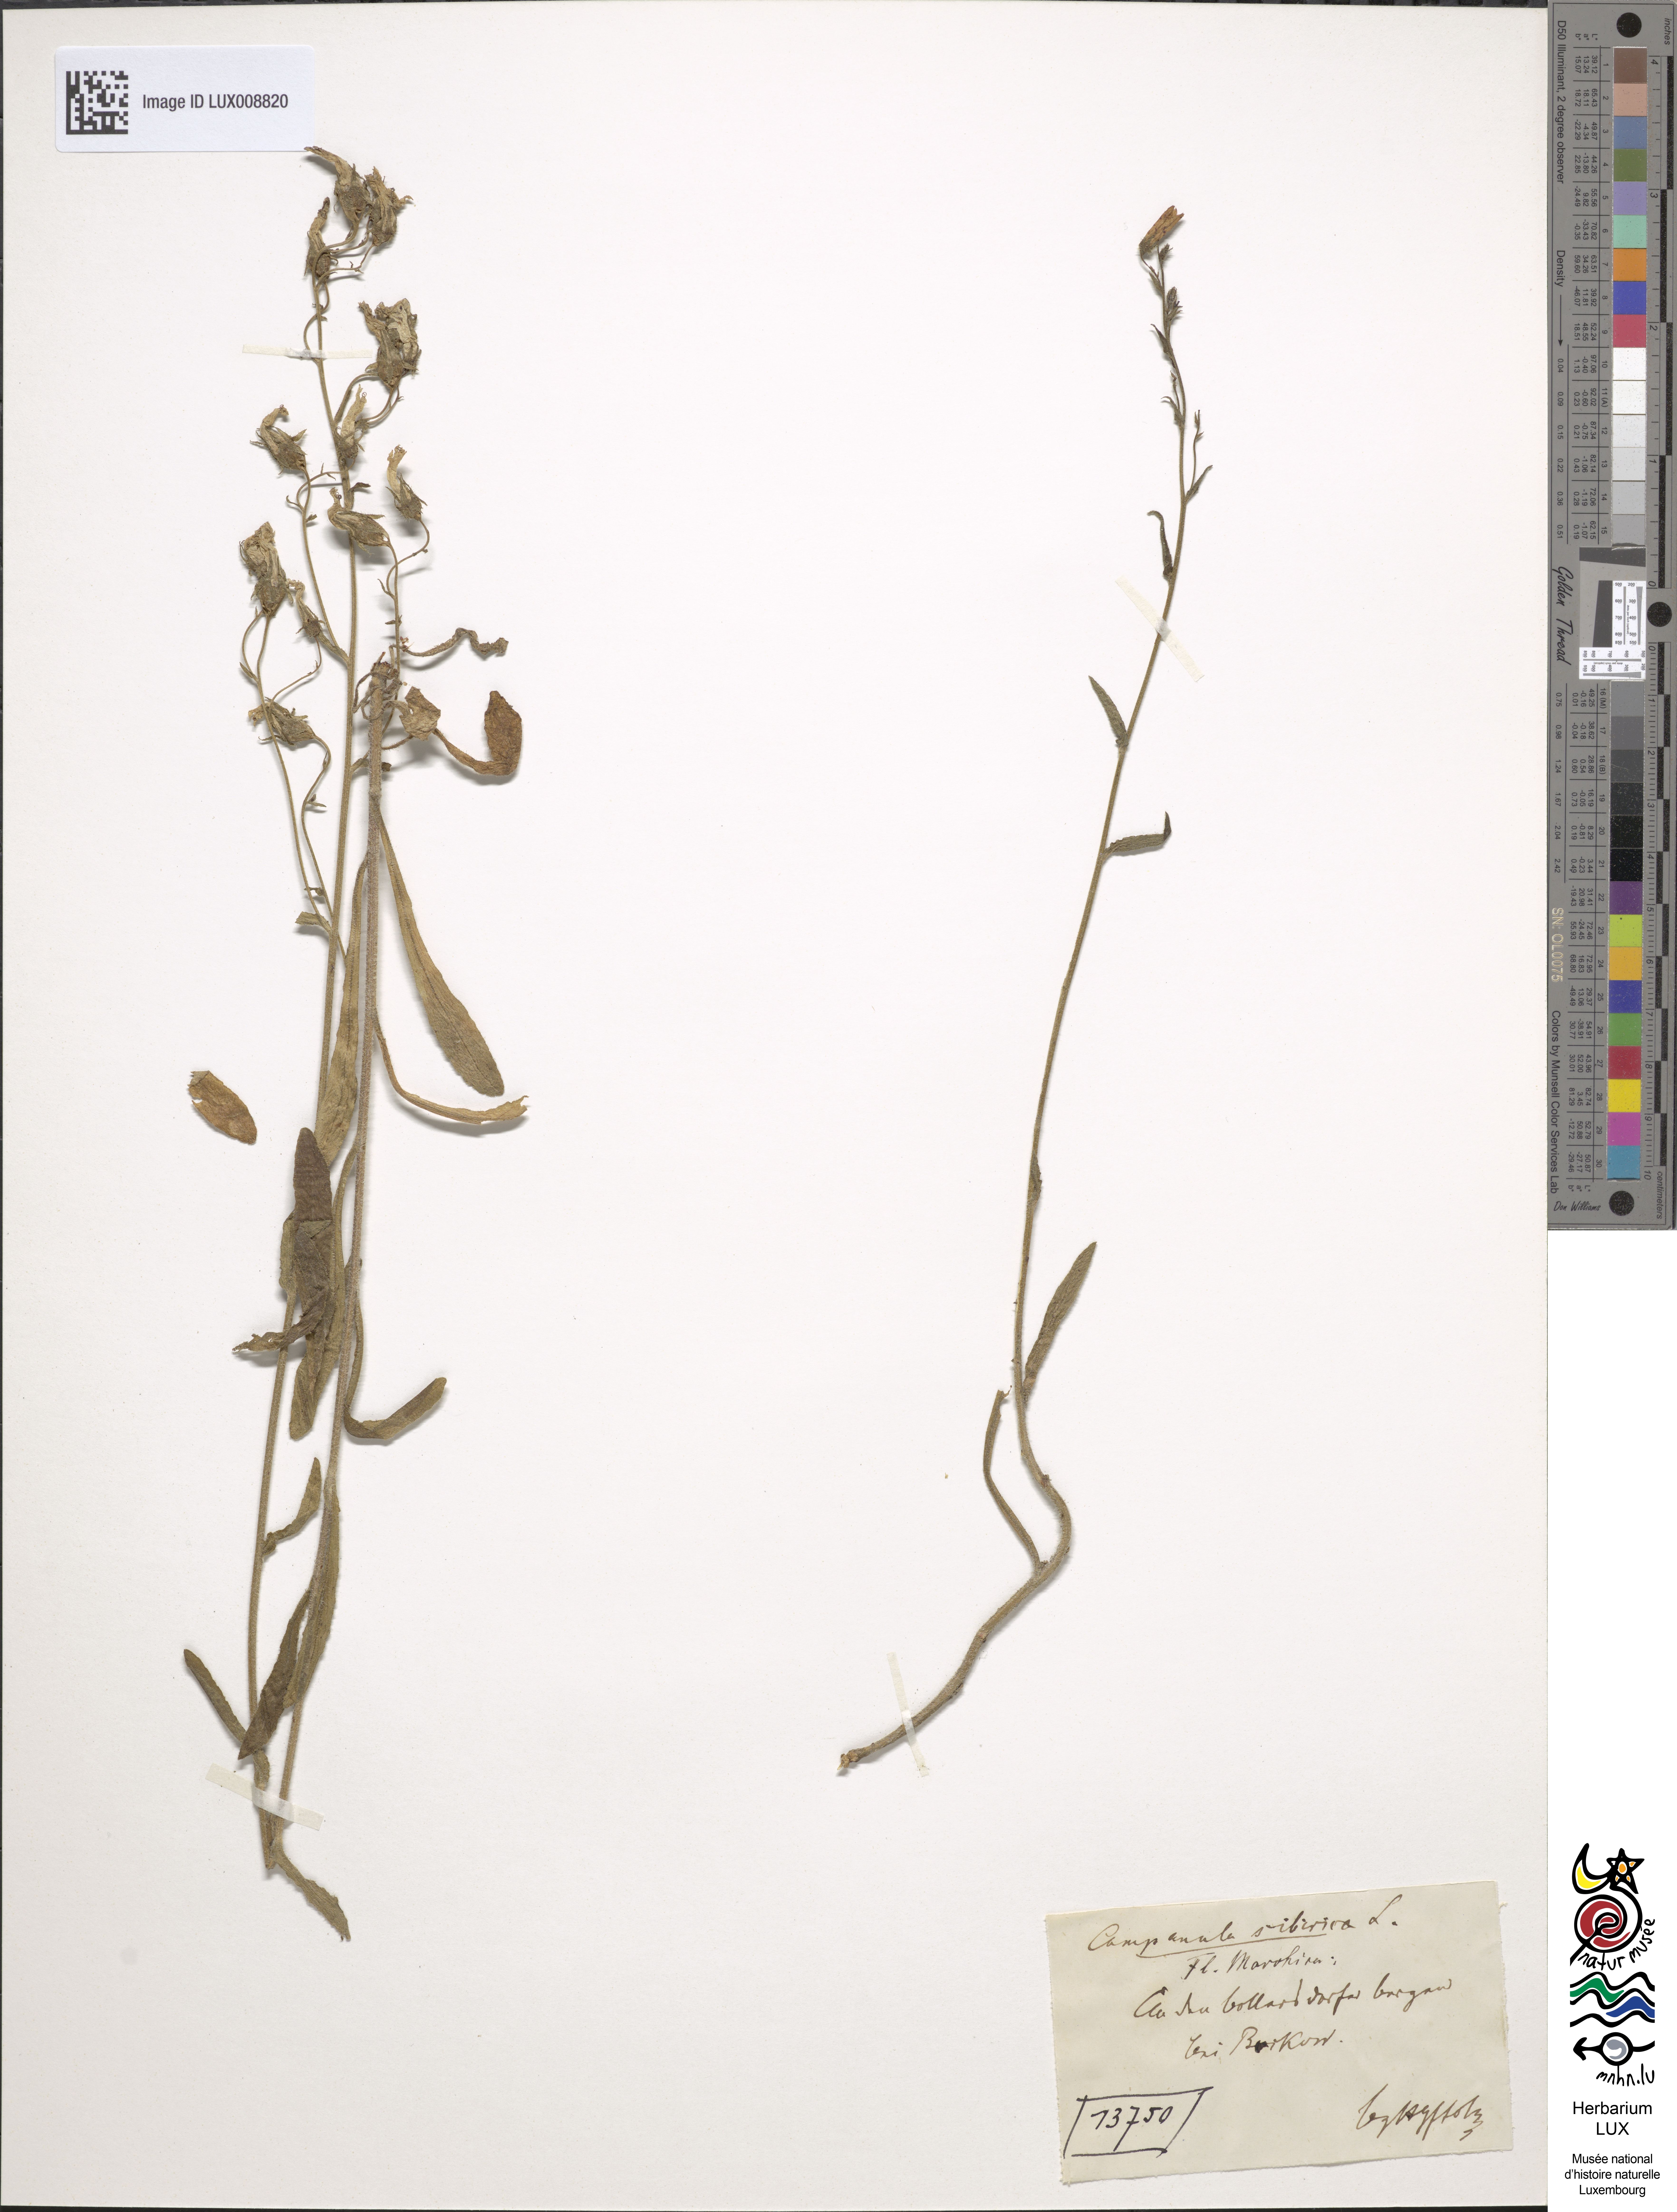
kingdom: Plantae
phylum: Tracheophyta
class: Magnoliopsida
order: Asterales
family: Campanulaceae
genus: Campanula
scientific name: Campanula sibirica
